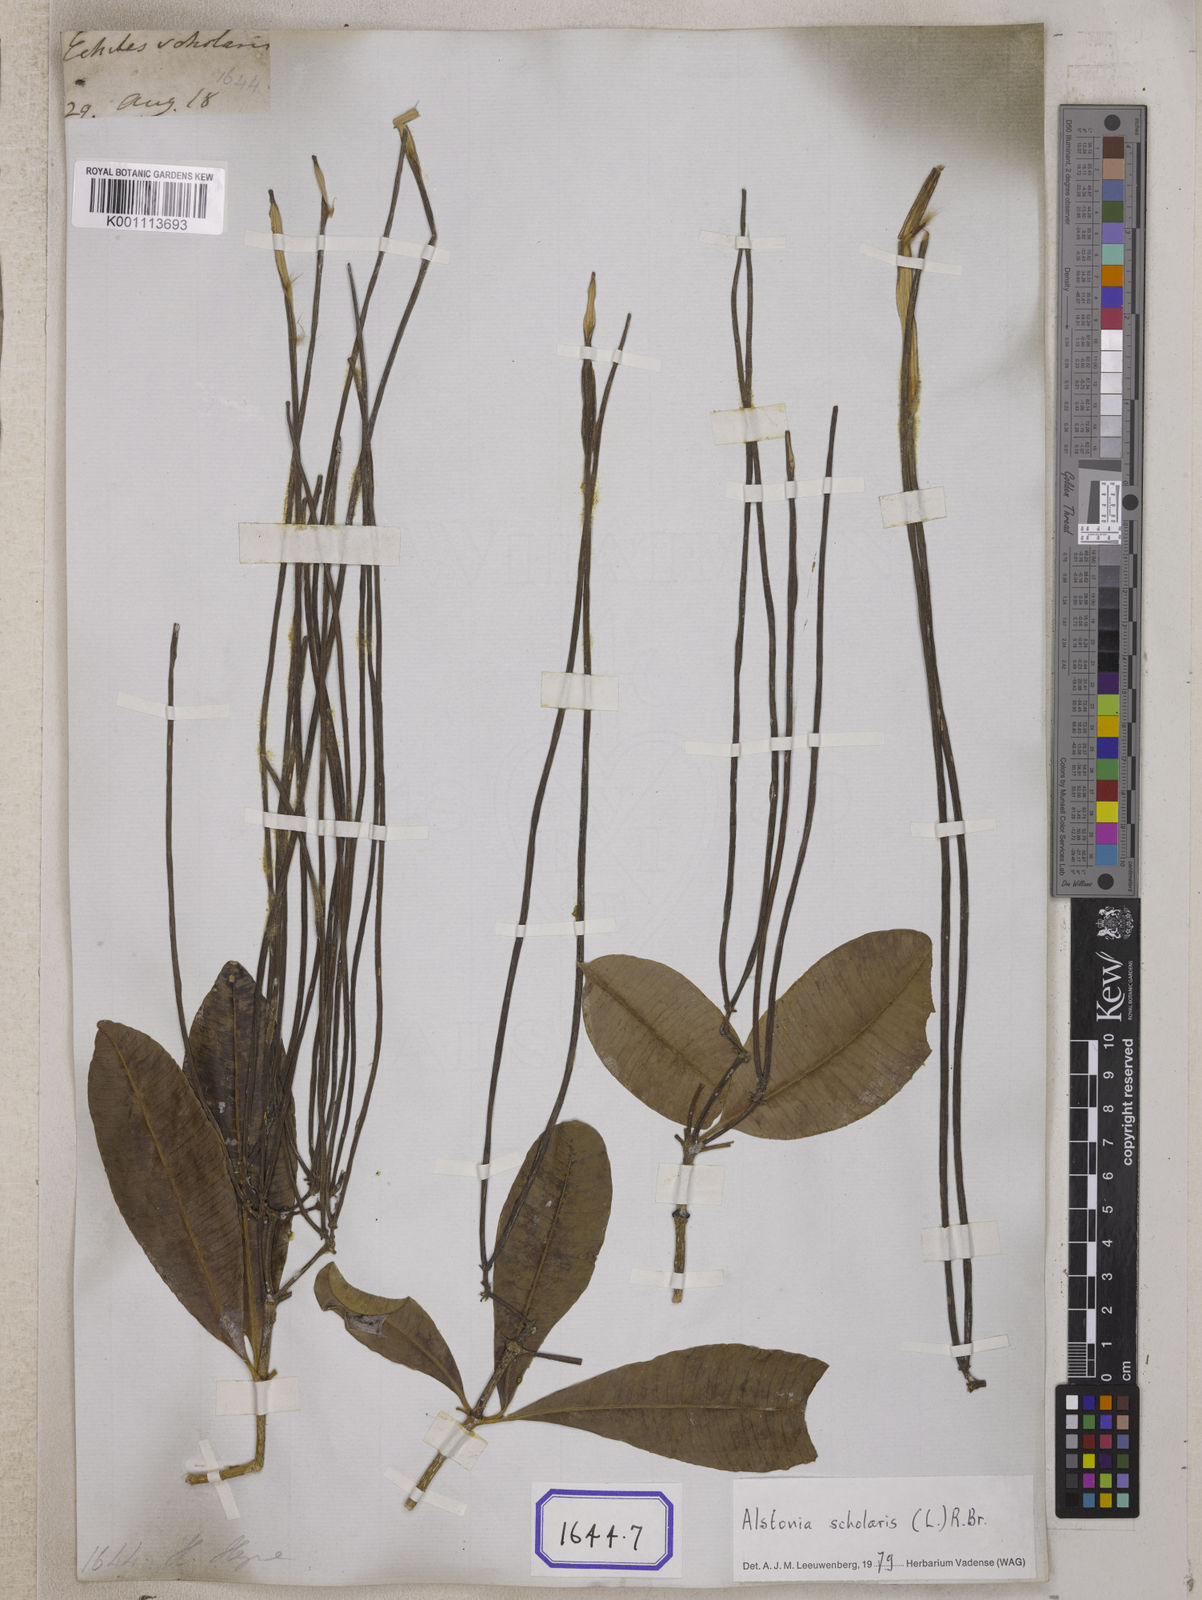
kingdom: Plantae
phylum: Tracheophyta
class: Magnoliopsida
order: Gentianales
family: Apocynaceae
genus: Alstonia
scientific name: Alstonia scholaris
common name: White cheesewood
